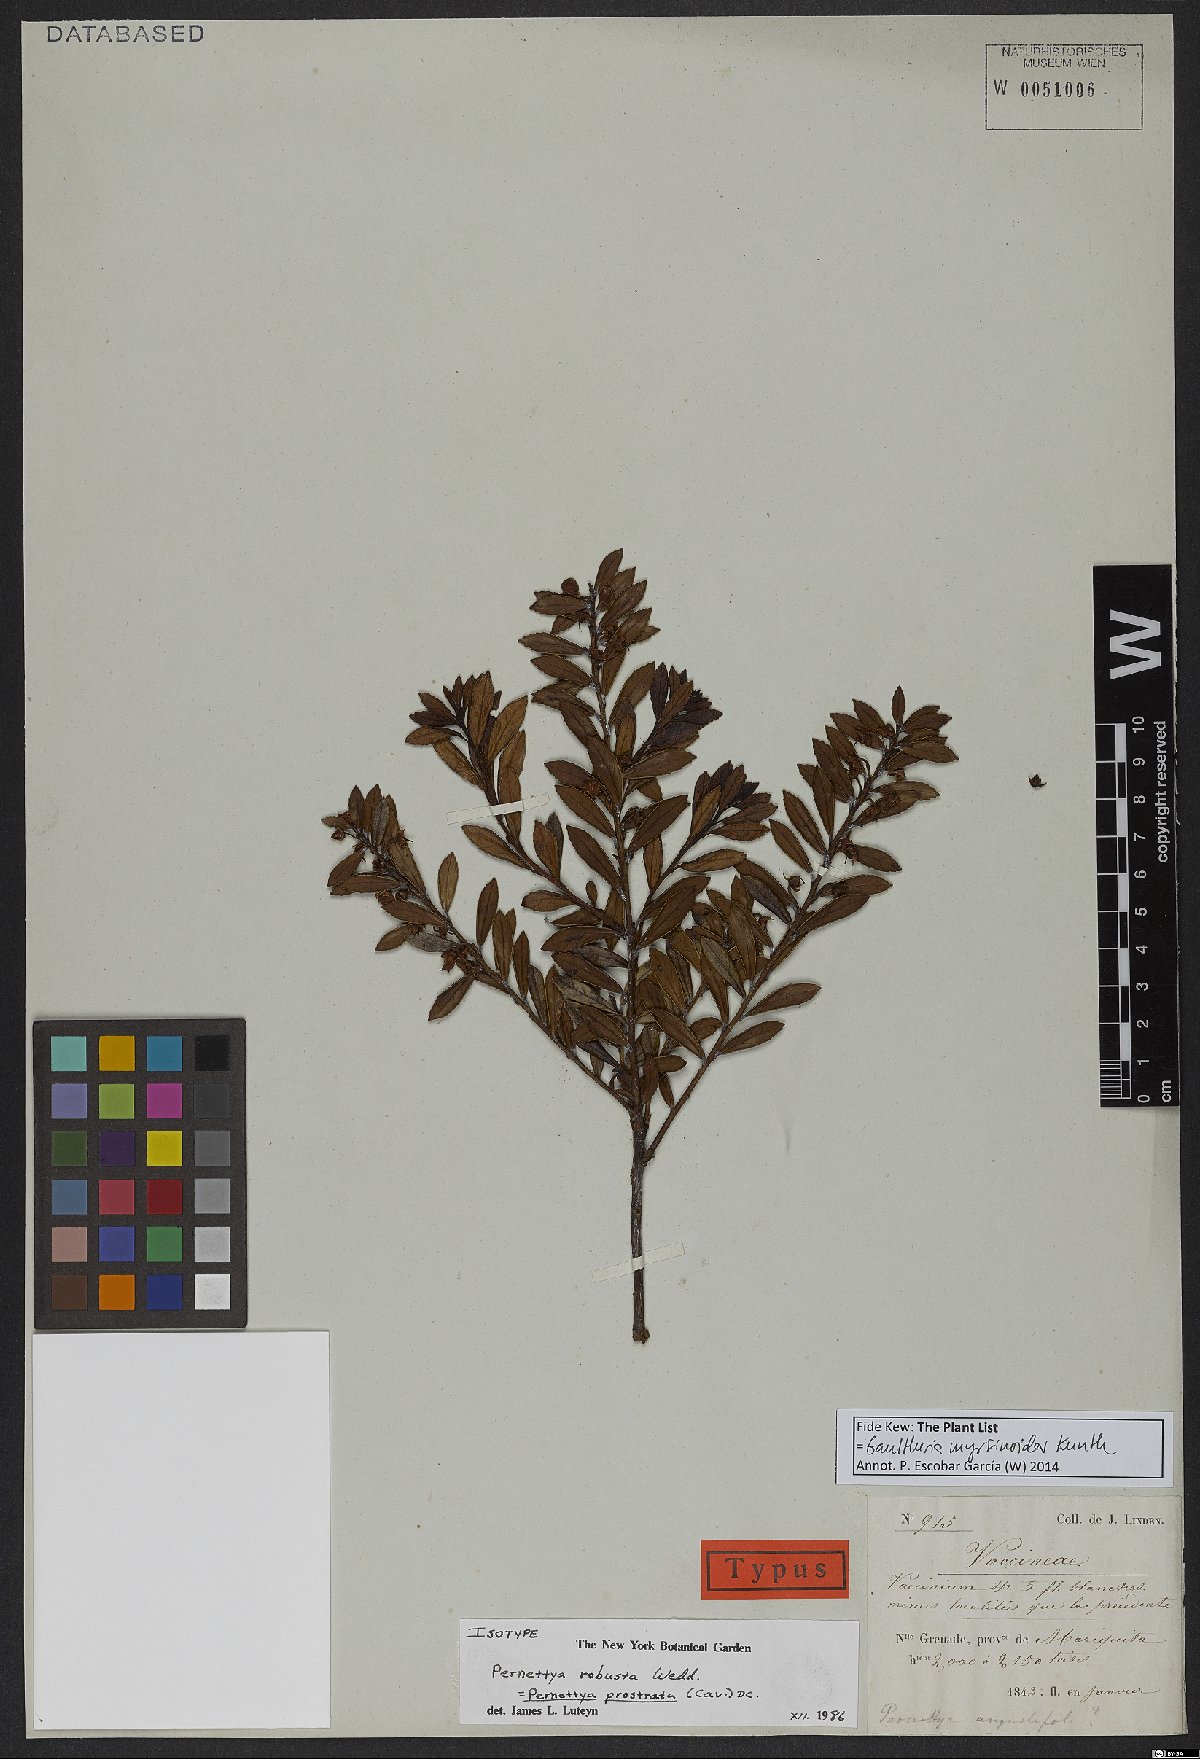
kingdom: Plantae
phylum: Tracheophyta
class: Magnoliopsida
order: Ericales
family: Ericaceae
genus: Gaultheria
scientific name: Gaultheria myrsinoides
